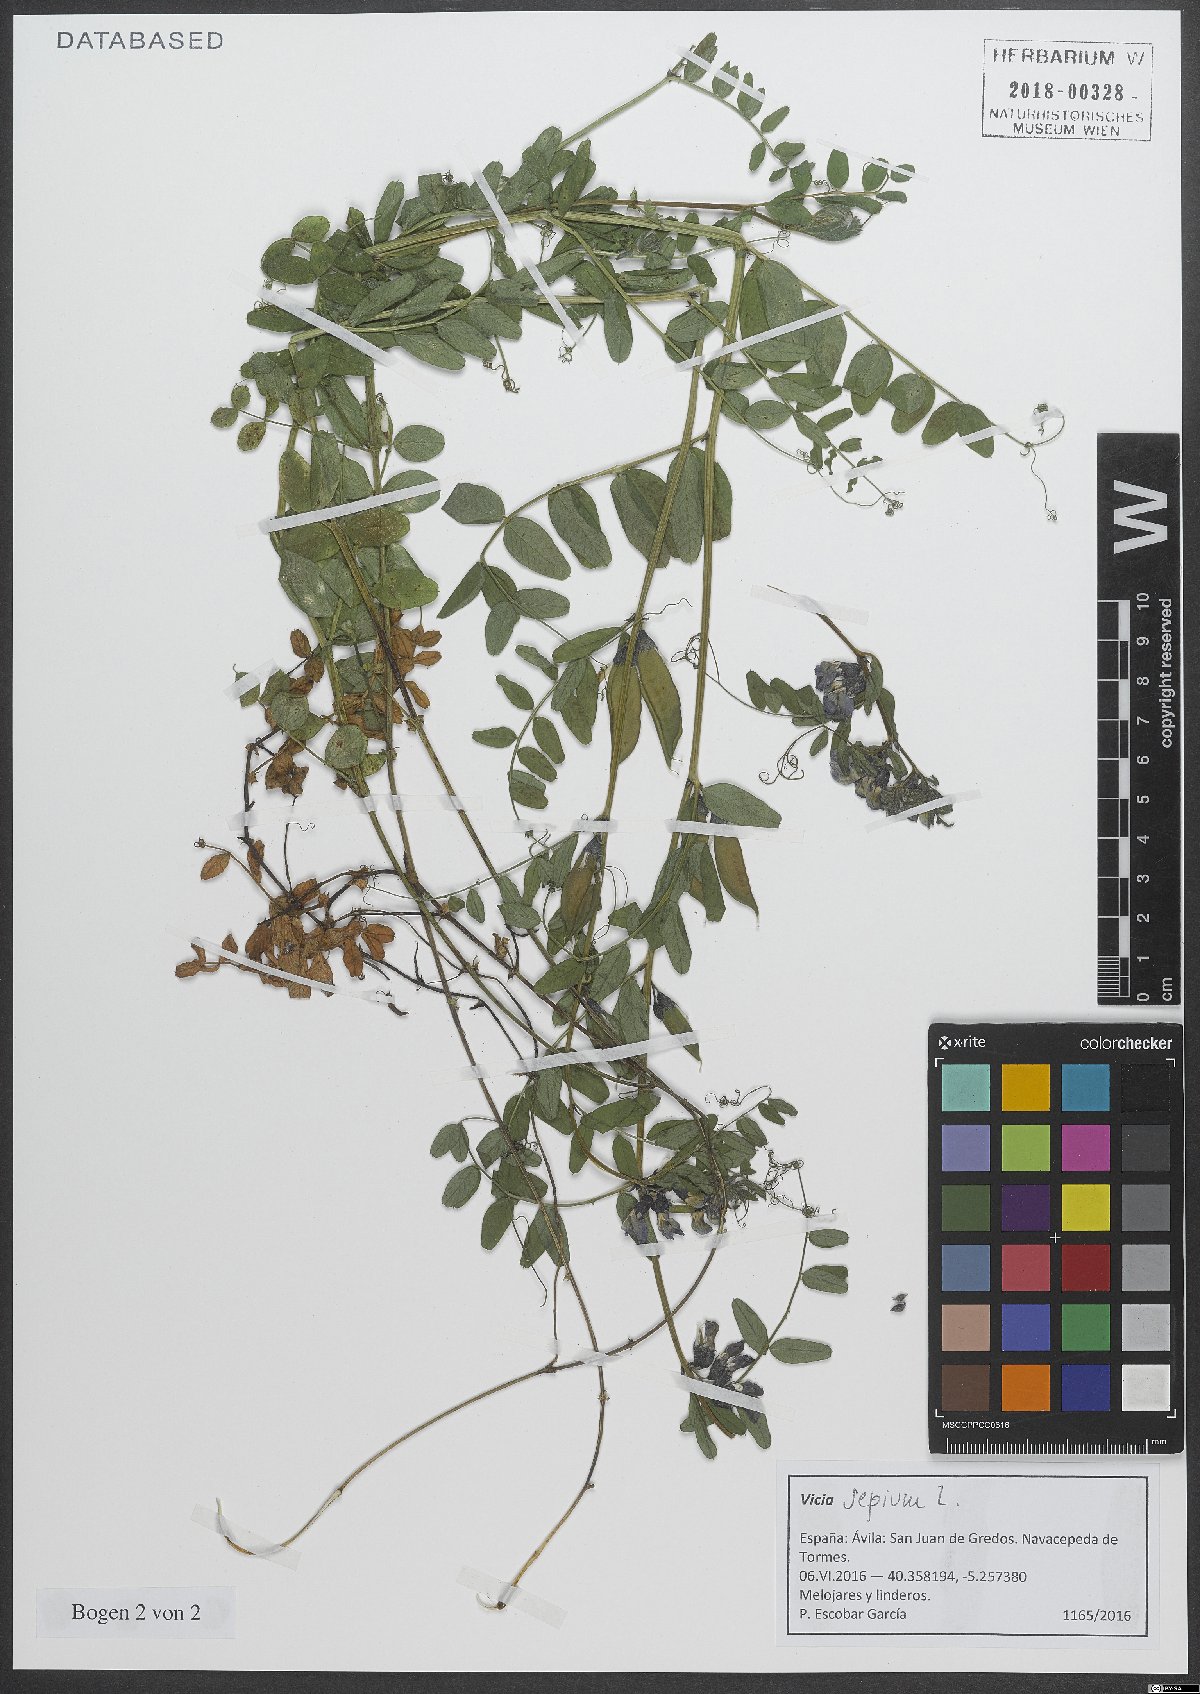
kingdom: Plantae
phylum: Tracheophyta
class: Magnoliopsida
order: Fabales
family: Fabaceae
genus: Vicia
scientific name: Vicia sepium
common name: Bush vetch
